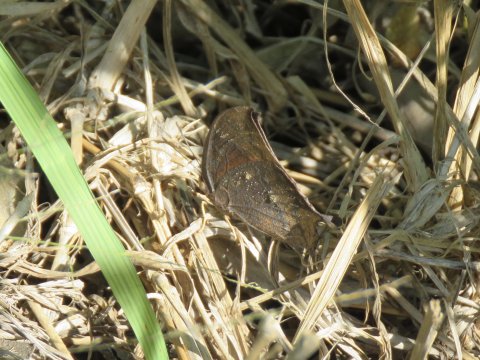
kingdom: Animalia
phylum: Arthropoda
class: Insecta
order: Lepidoptera
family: Nymphalidae
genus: Anaea
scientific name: Anaea aidea
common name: Tropical Leafwing
